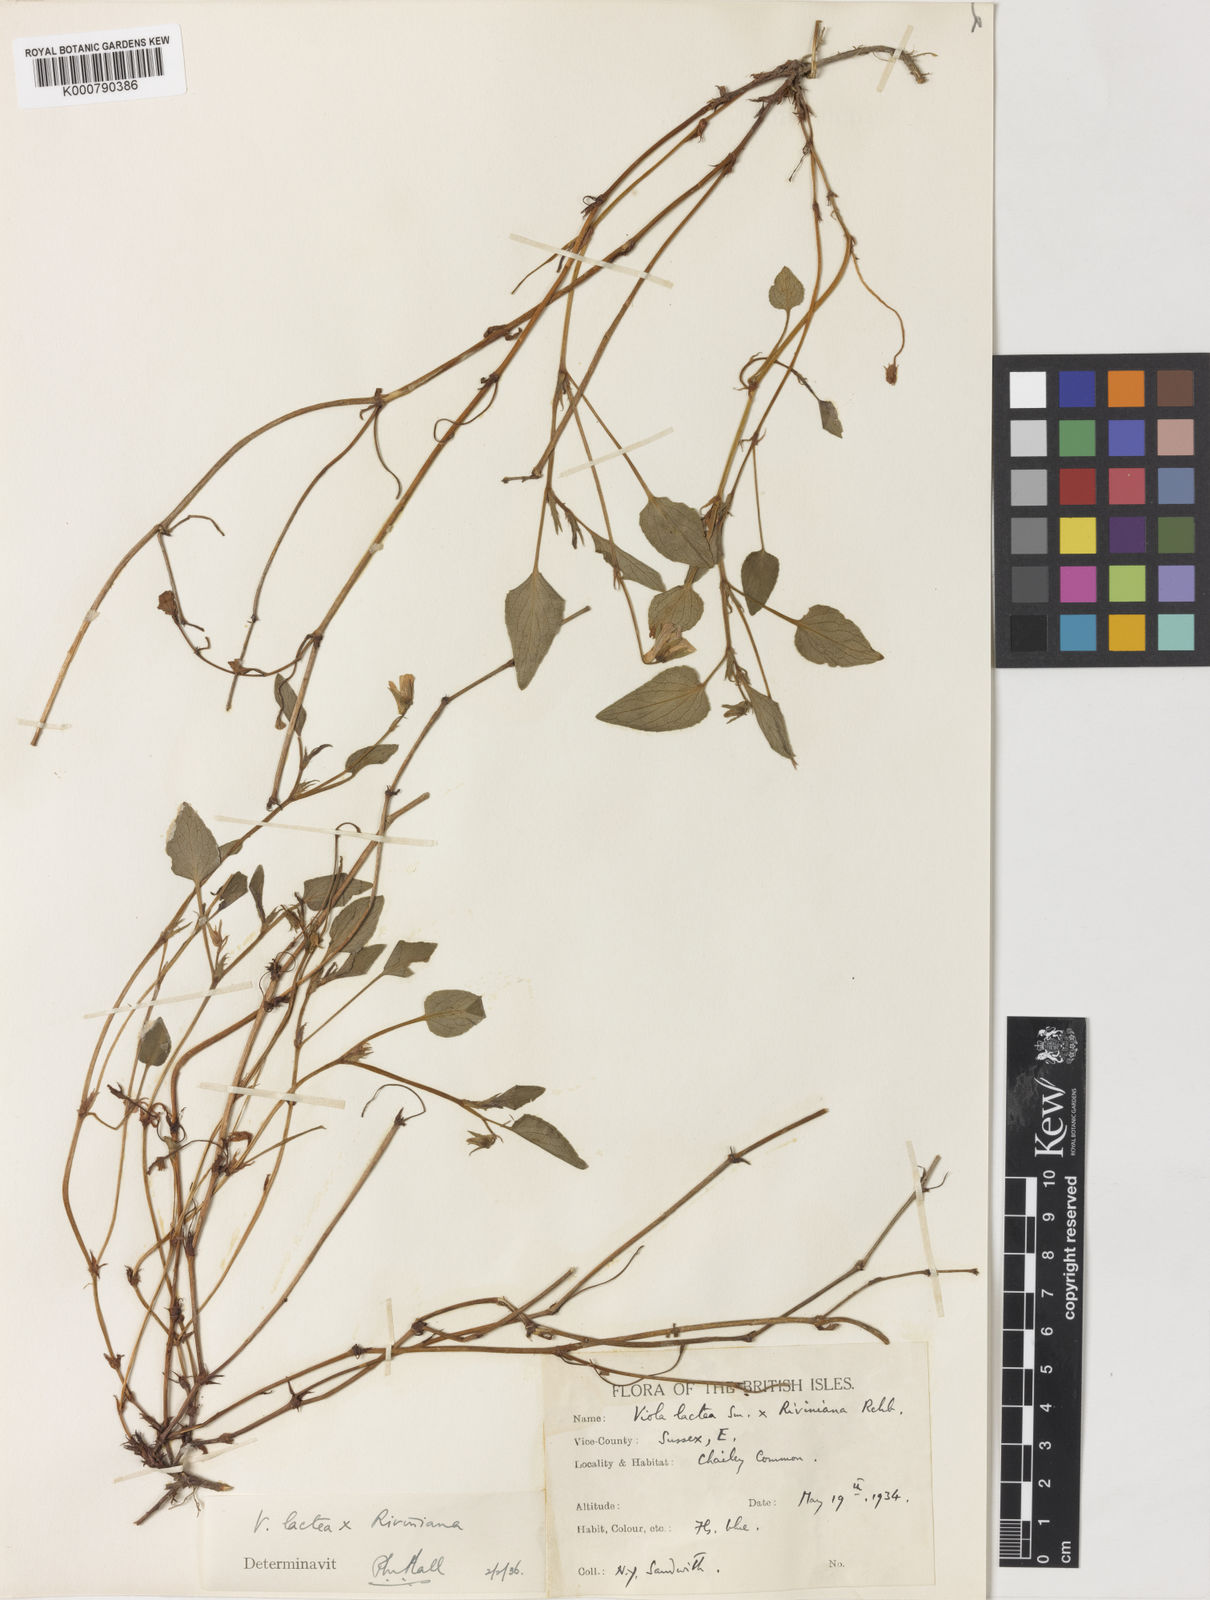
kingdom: Plantae
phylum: Tracheophyta
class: Magnoliopsida
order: Malpighiales
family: Violaceae
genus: Viola
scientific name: Viola lactea
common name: Pale dog-violet
